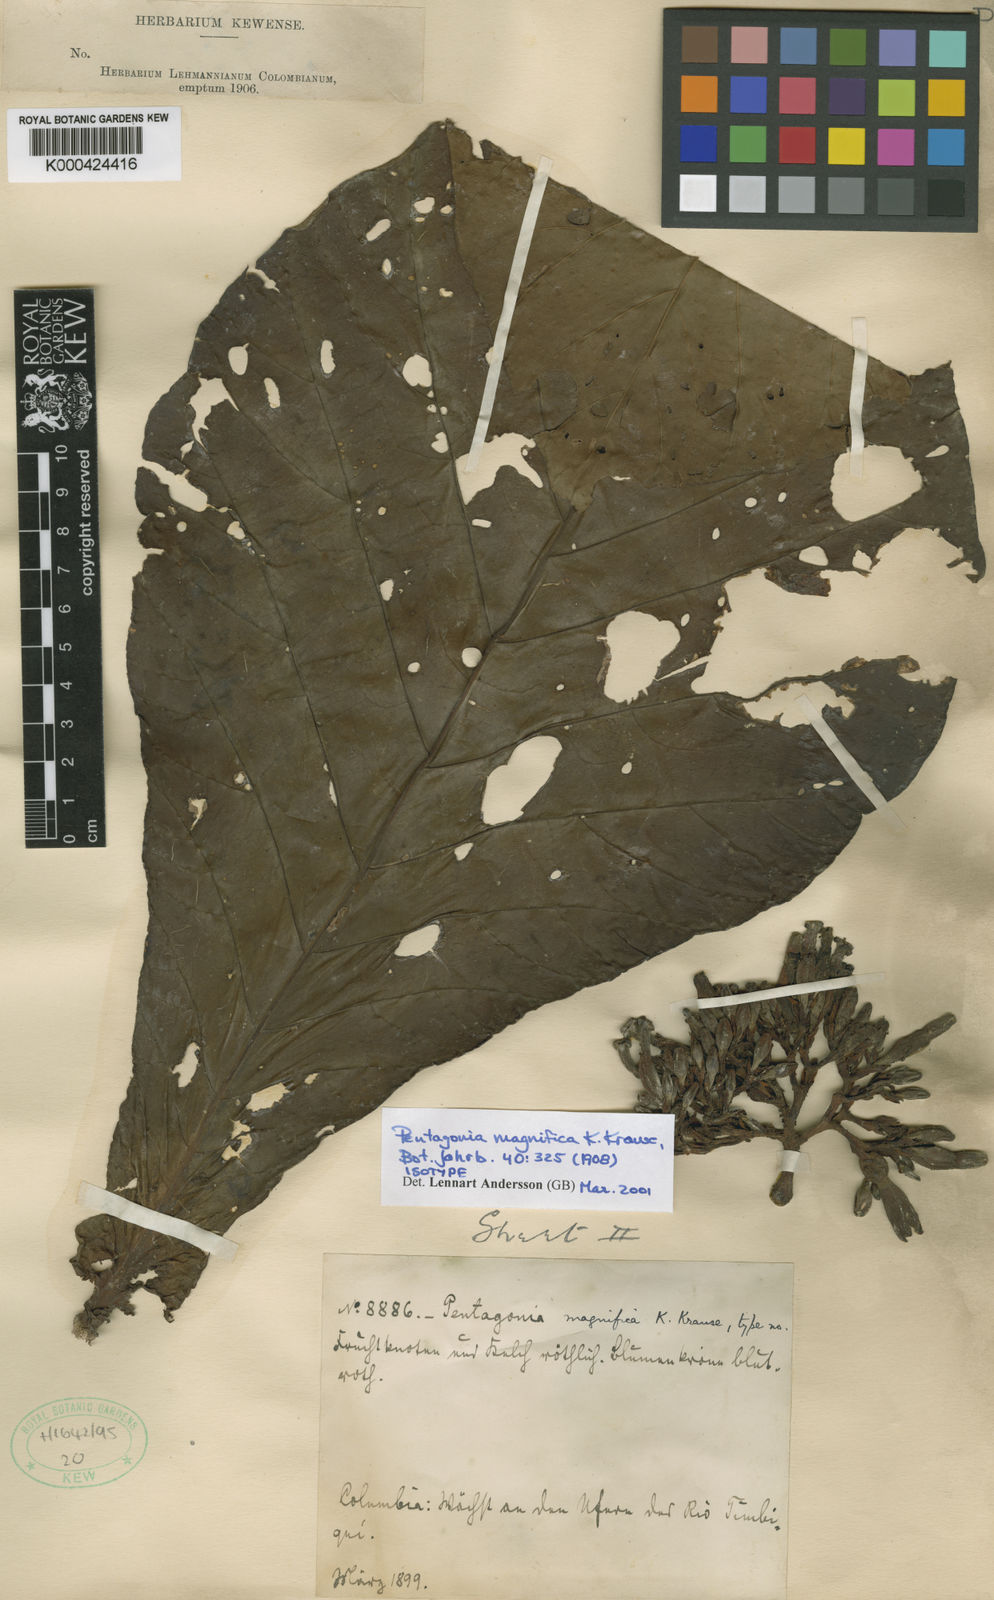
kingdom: Plantae
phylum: Tracheophyta
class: Magnoliopsida
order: Gentianales
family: Rubiaceae
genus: Pentagonia
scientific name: Pentagonia magnifica
